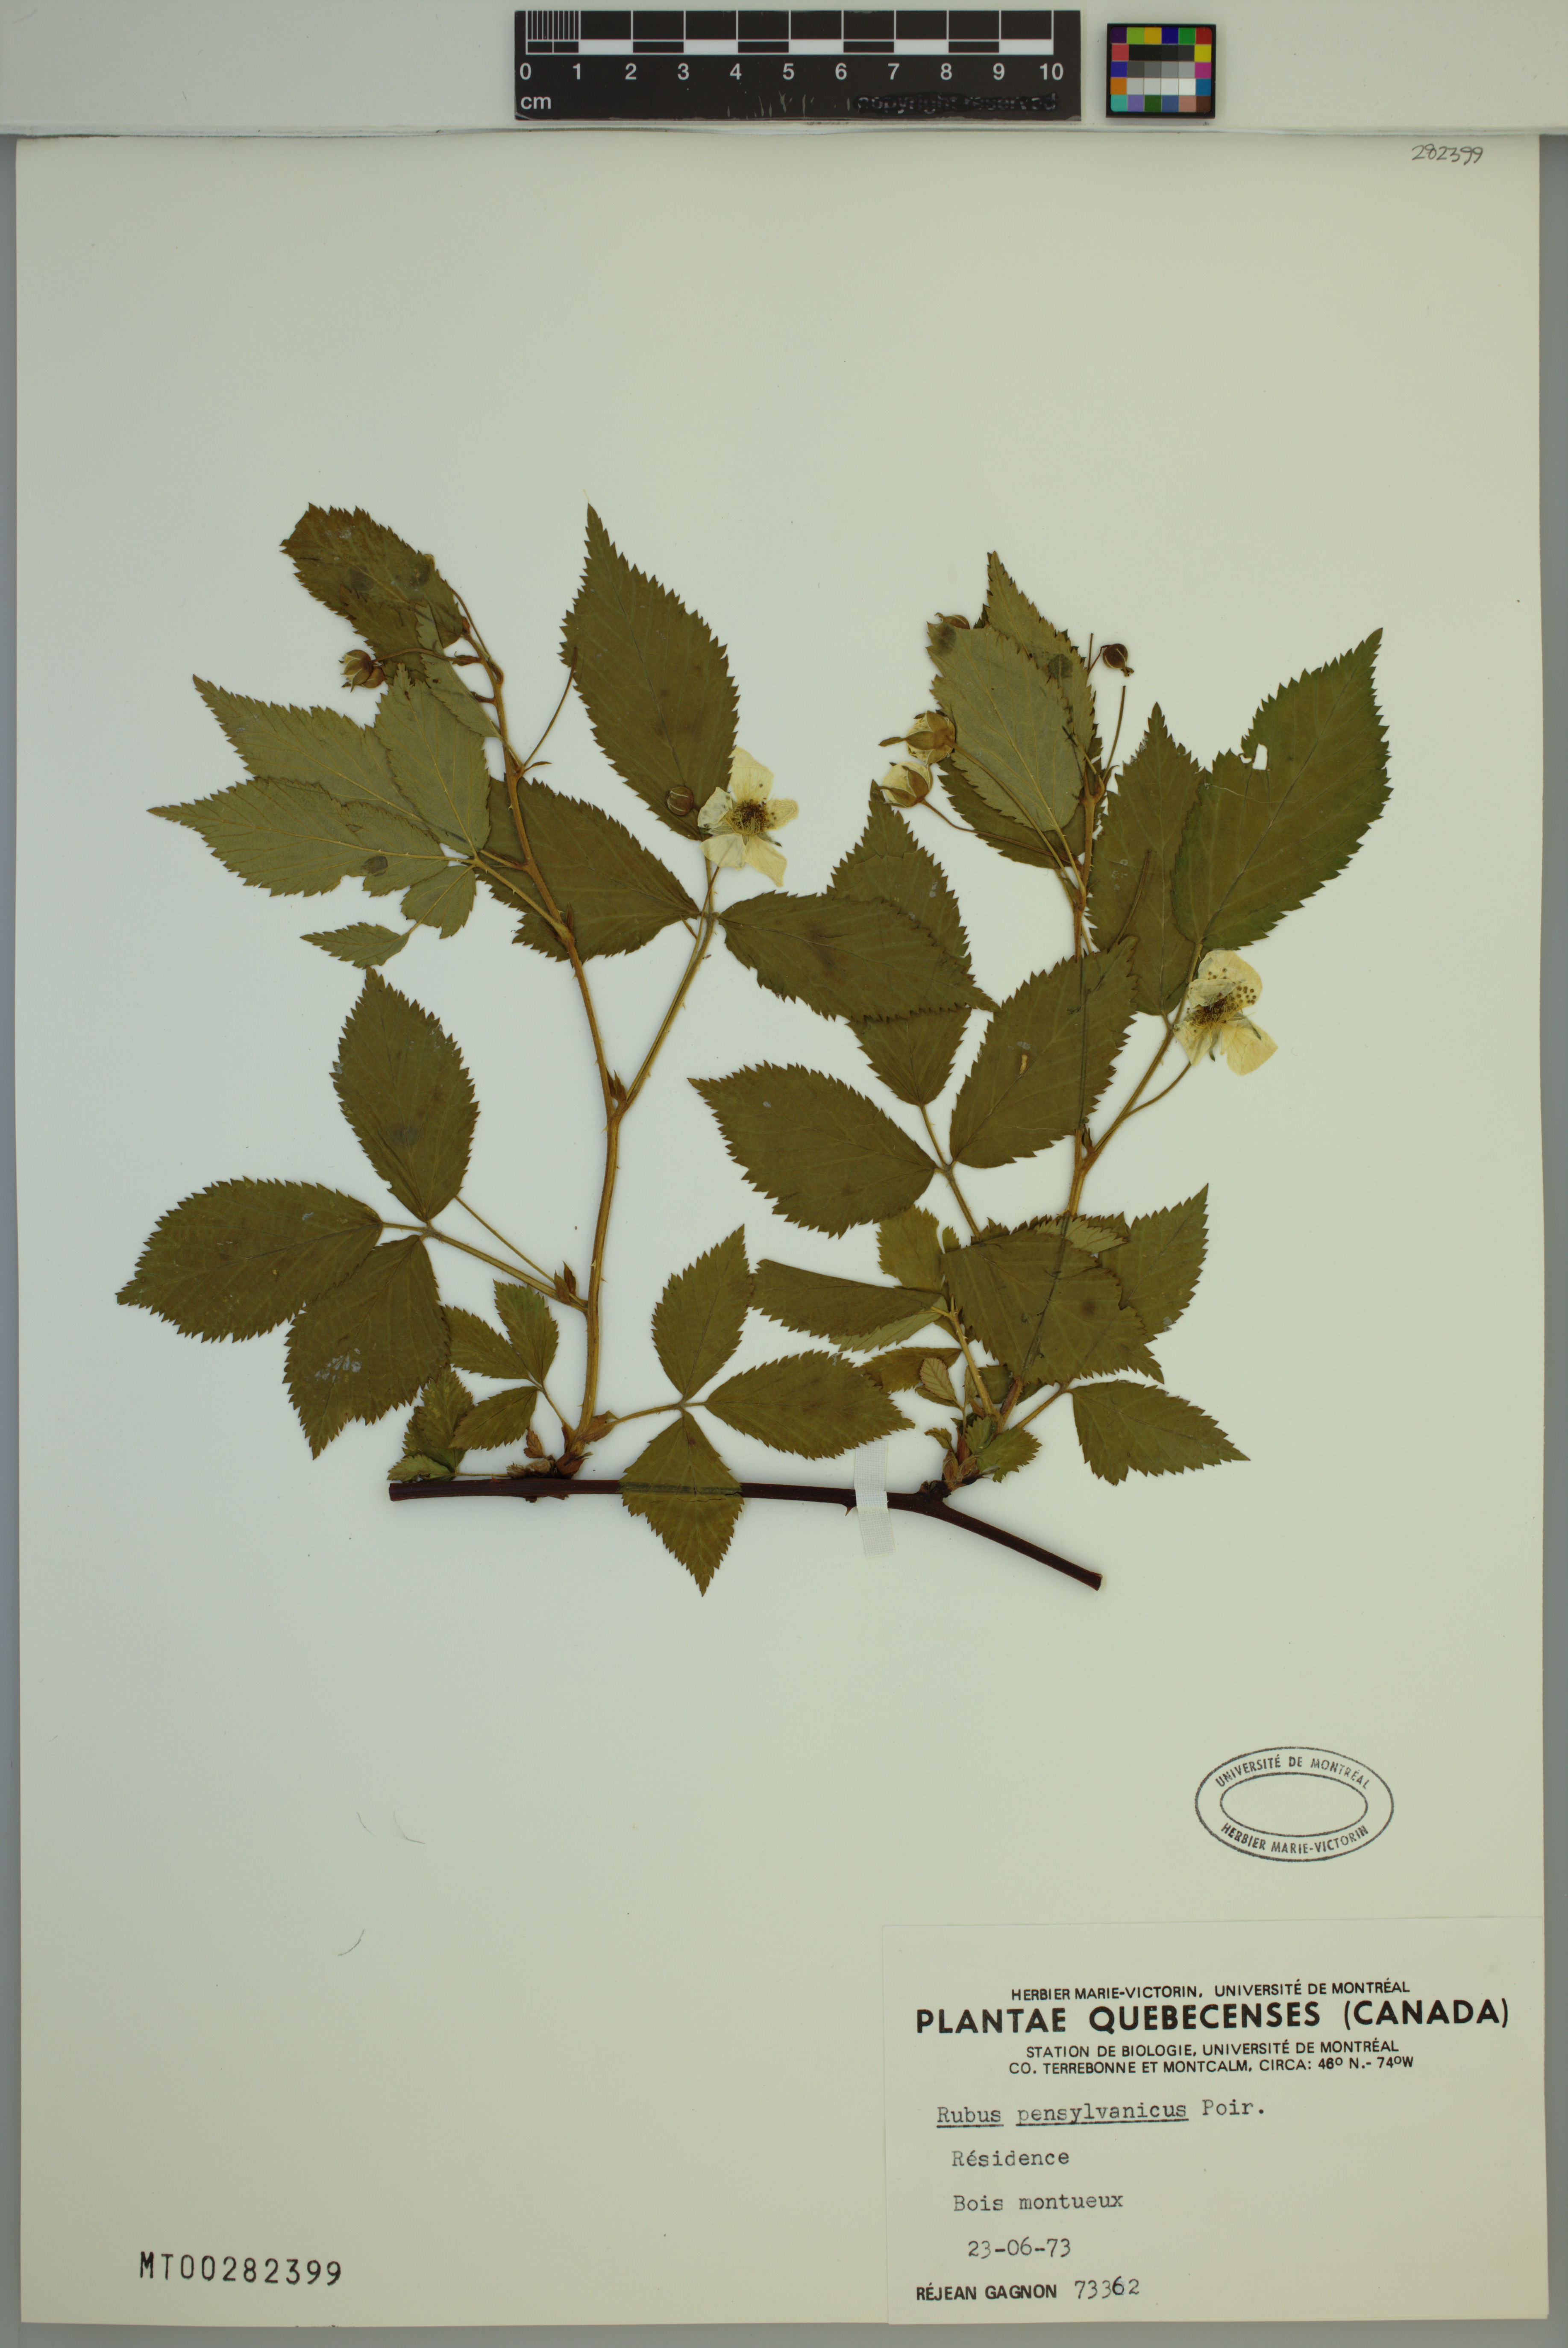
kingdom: Plantae
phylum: Tracheophyta
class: Magnoliopsida
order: Rosales
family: Rosaceae
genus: Rubus
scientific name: Rubus pensilvanicus
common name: Pennsylvania blackberry
